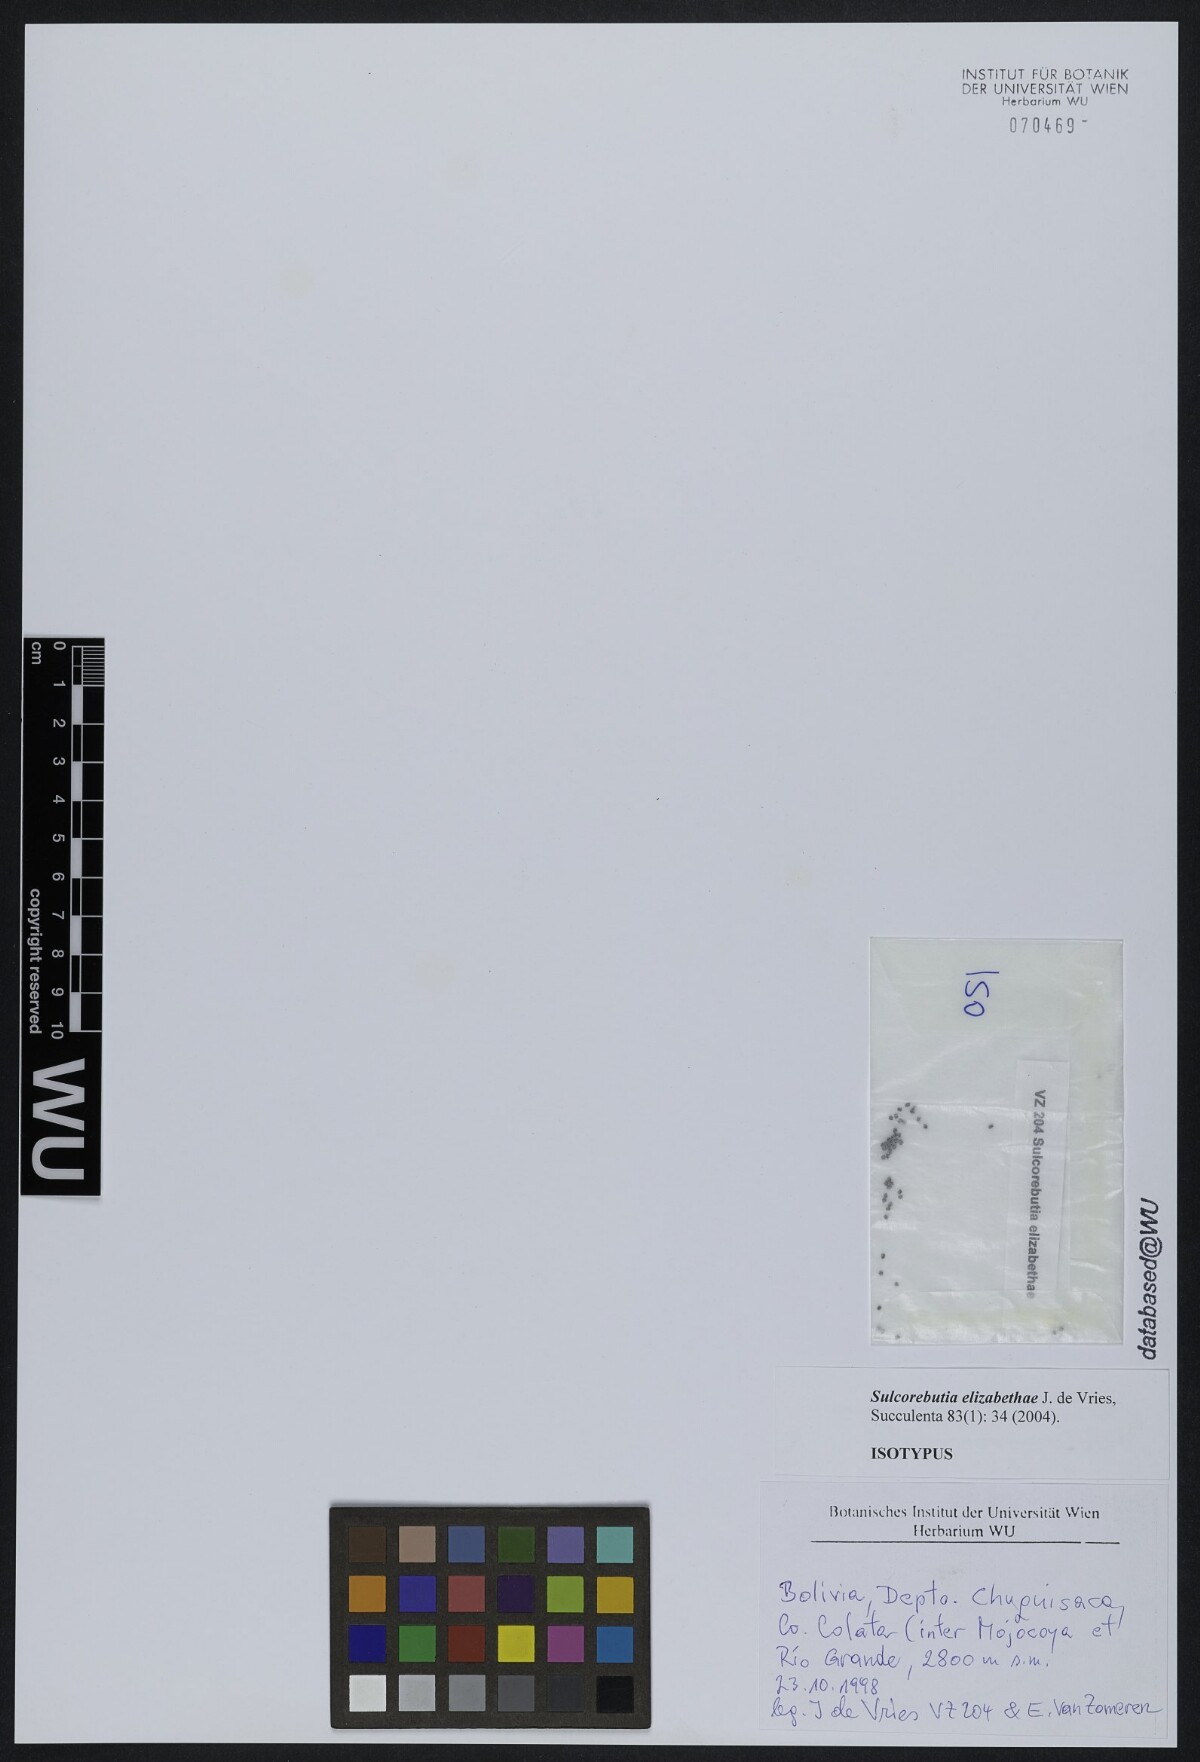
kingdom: Plantae
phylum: Tracheophyta
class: Magnoliopsida
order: Caryophyllales
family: Cactaceae
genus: Weingartia
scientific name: Weingartia canigueralii
